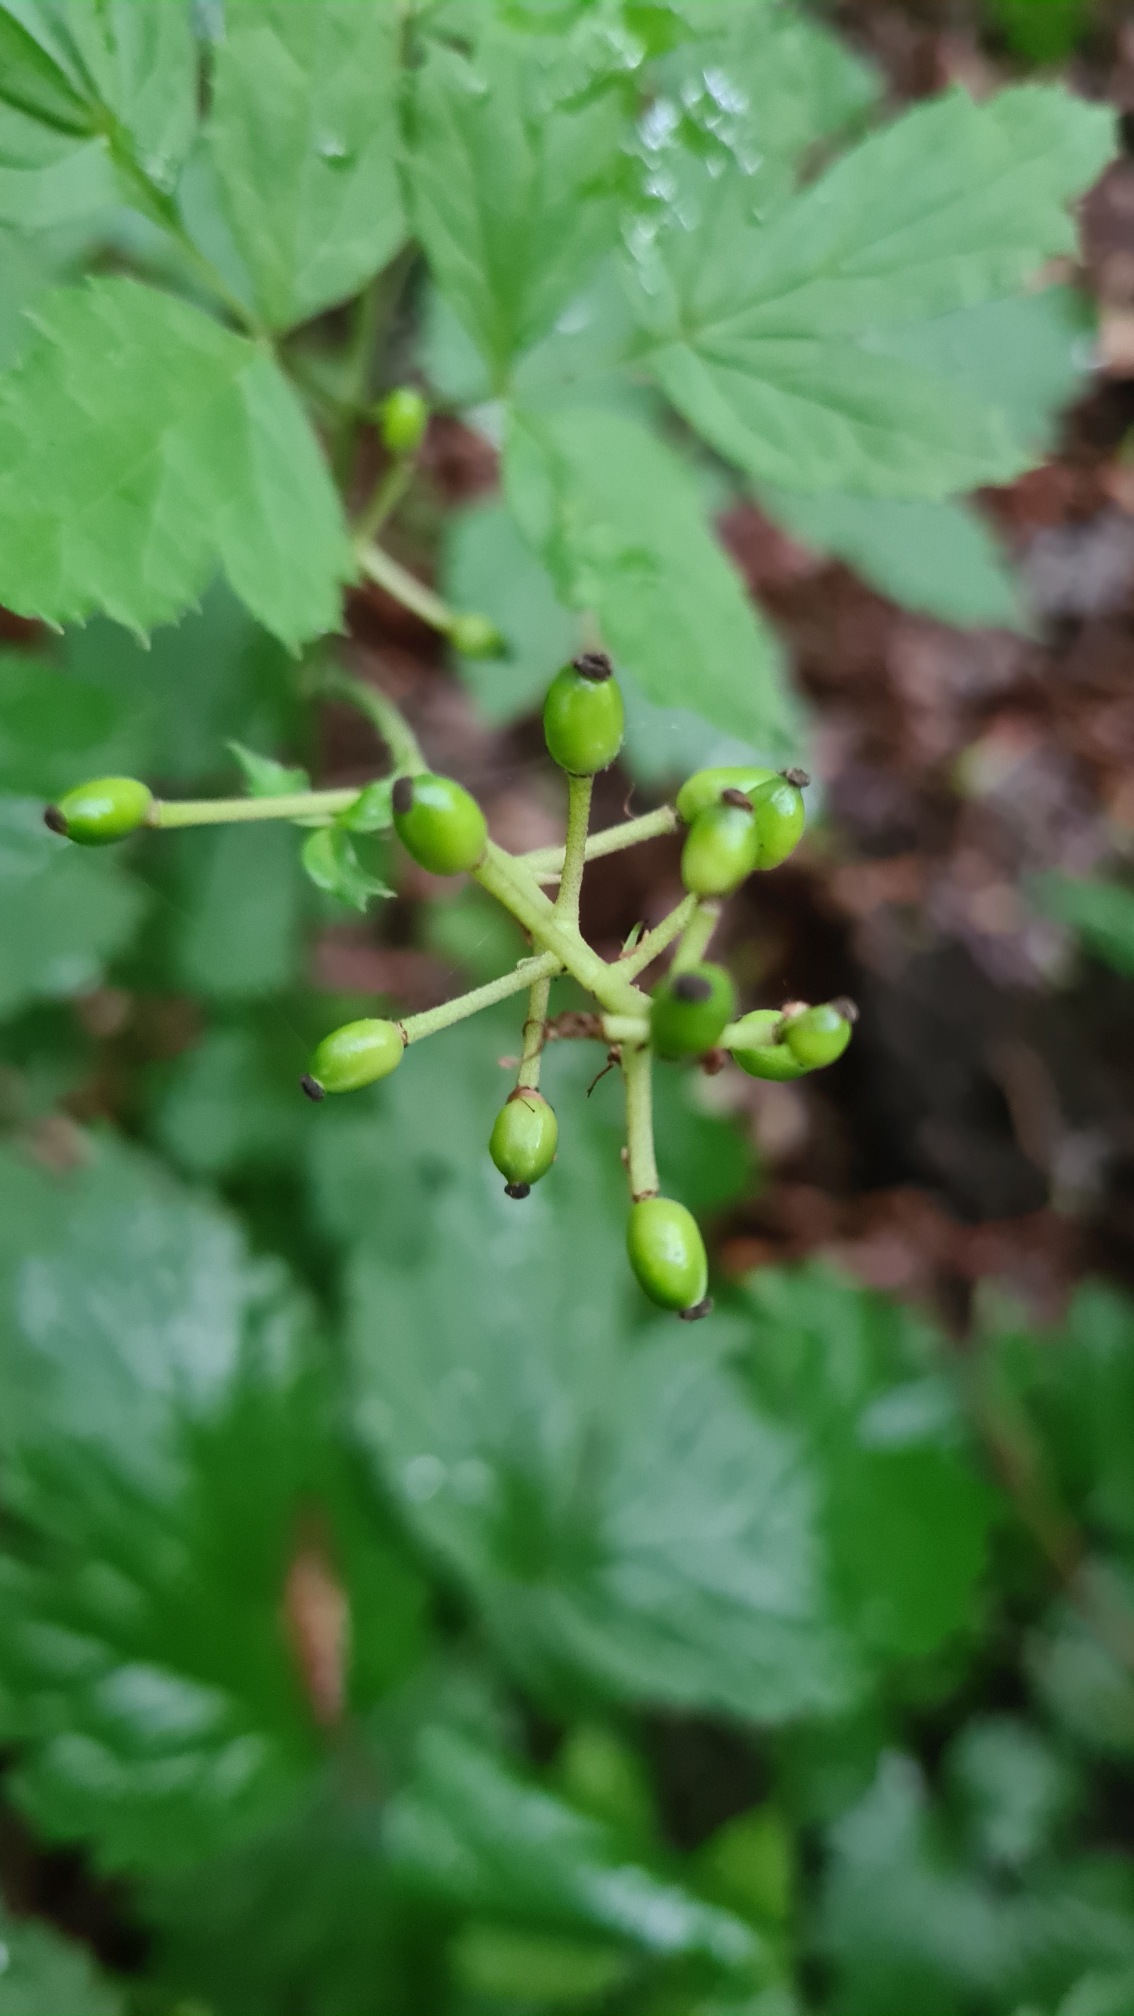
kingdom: Plantae
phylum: Tracheophyta
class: Magnoliopsida
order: Ranunculales
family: Ranunculaceae
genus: Actaea
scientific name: Actaea spicata
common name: Druemunke
